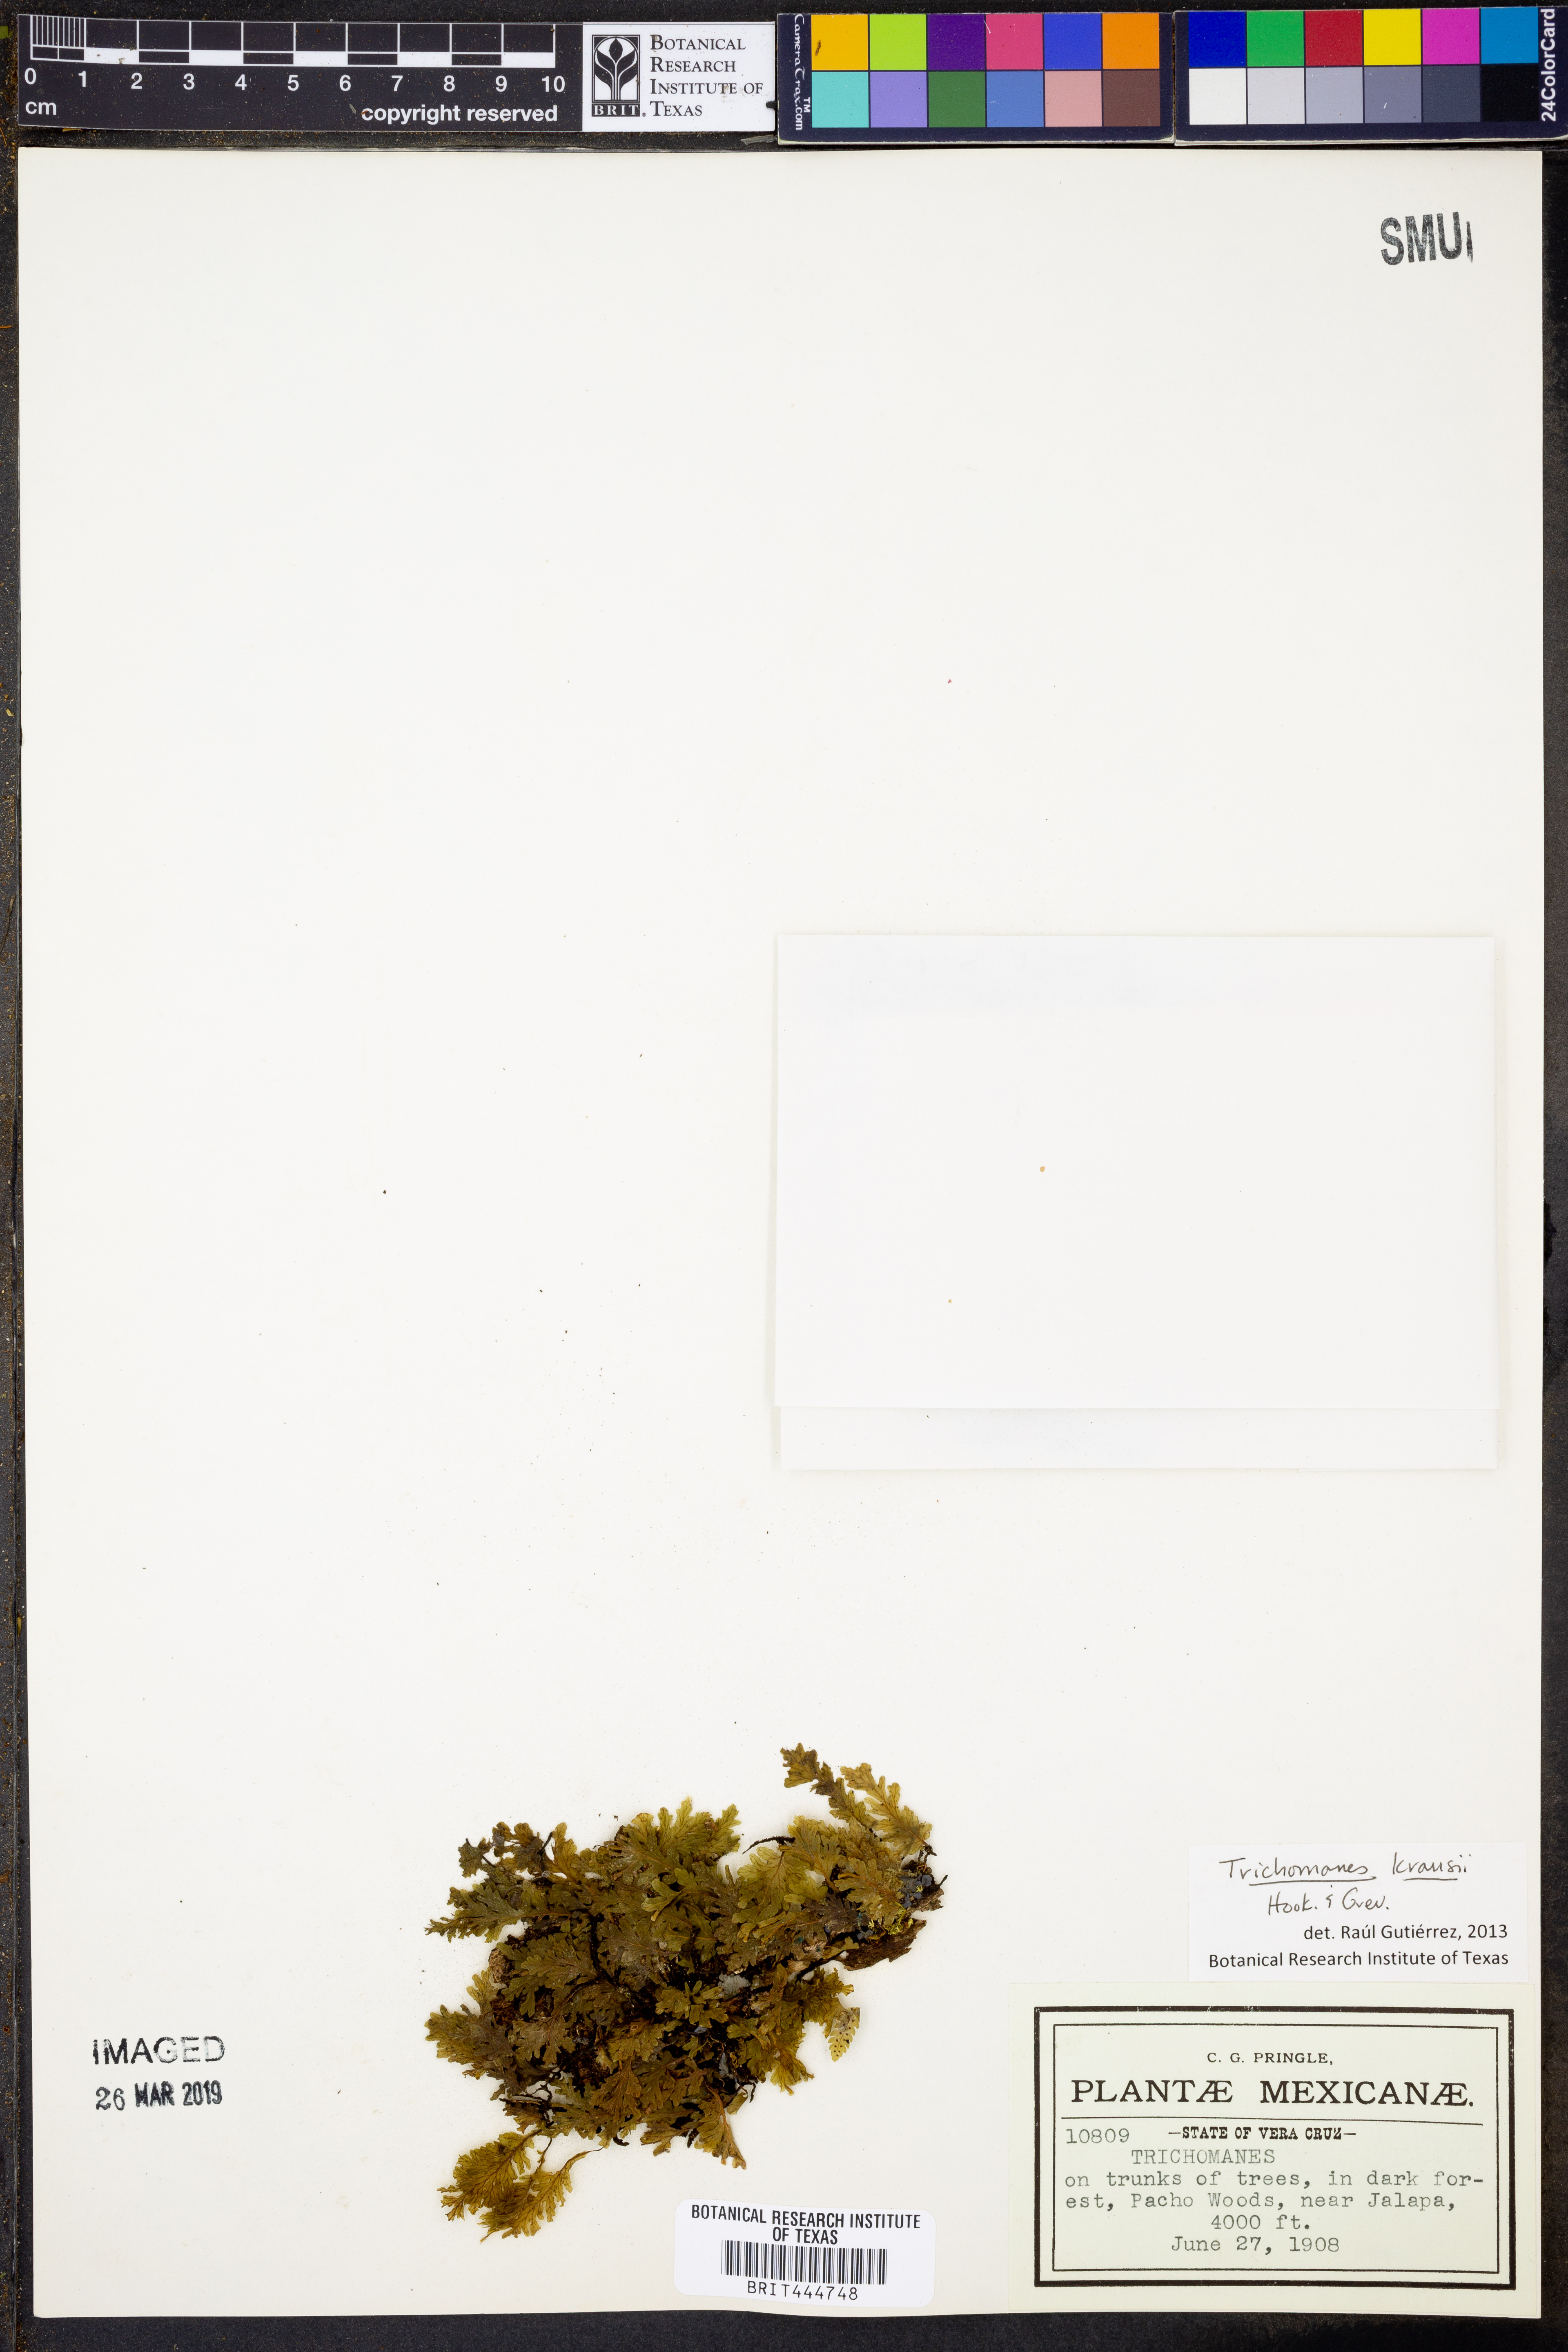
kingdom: Plantae
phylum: Tracheophyta
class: Polypodiopsida
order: Hymenophyllales
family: Hymenophyllaceae
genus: Didymoglossum
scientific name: Didymoglossum kraussii
